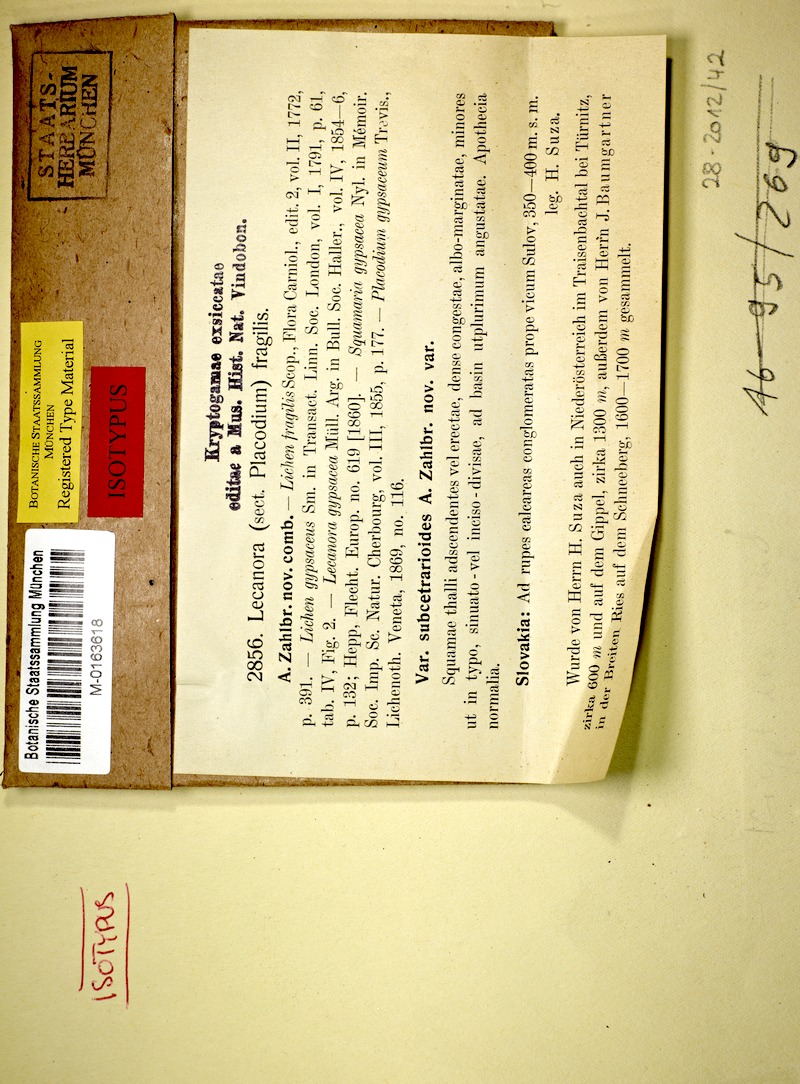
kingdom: Fungi
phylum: Ascomycota
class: Lecanoromycetes
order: Lecanorales
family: Stereocaulaceae
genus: Squamarina
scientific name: Squamarina
